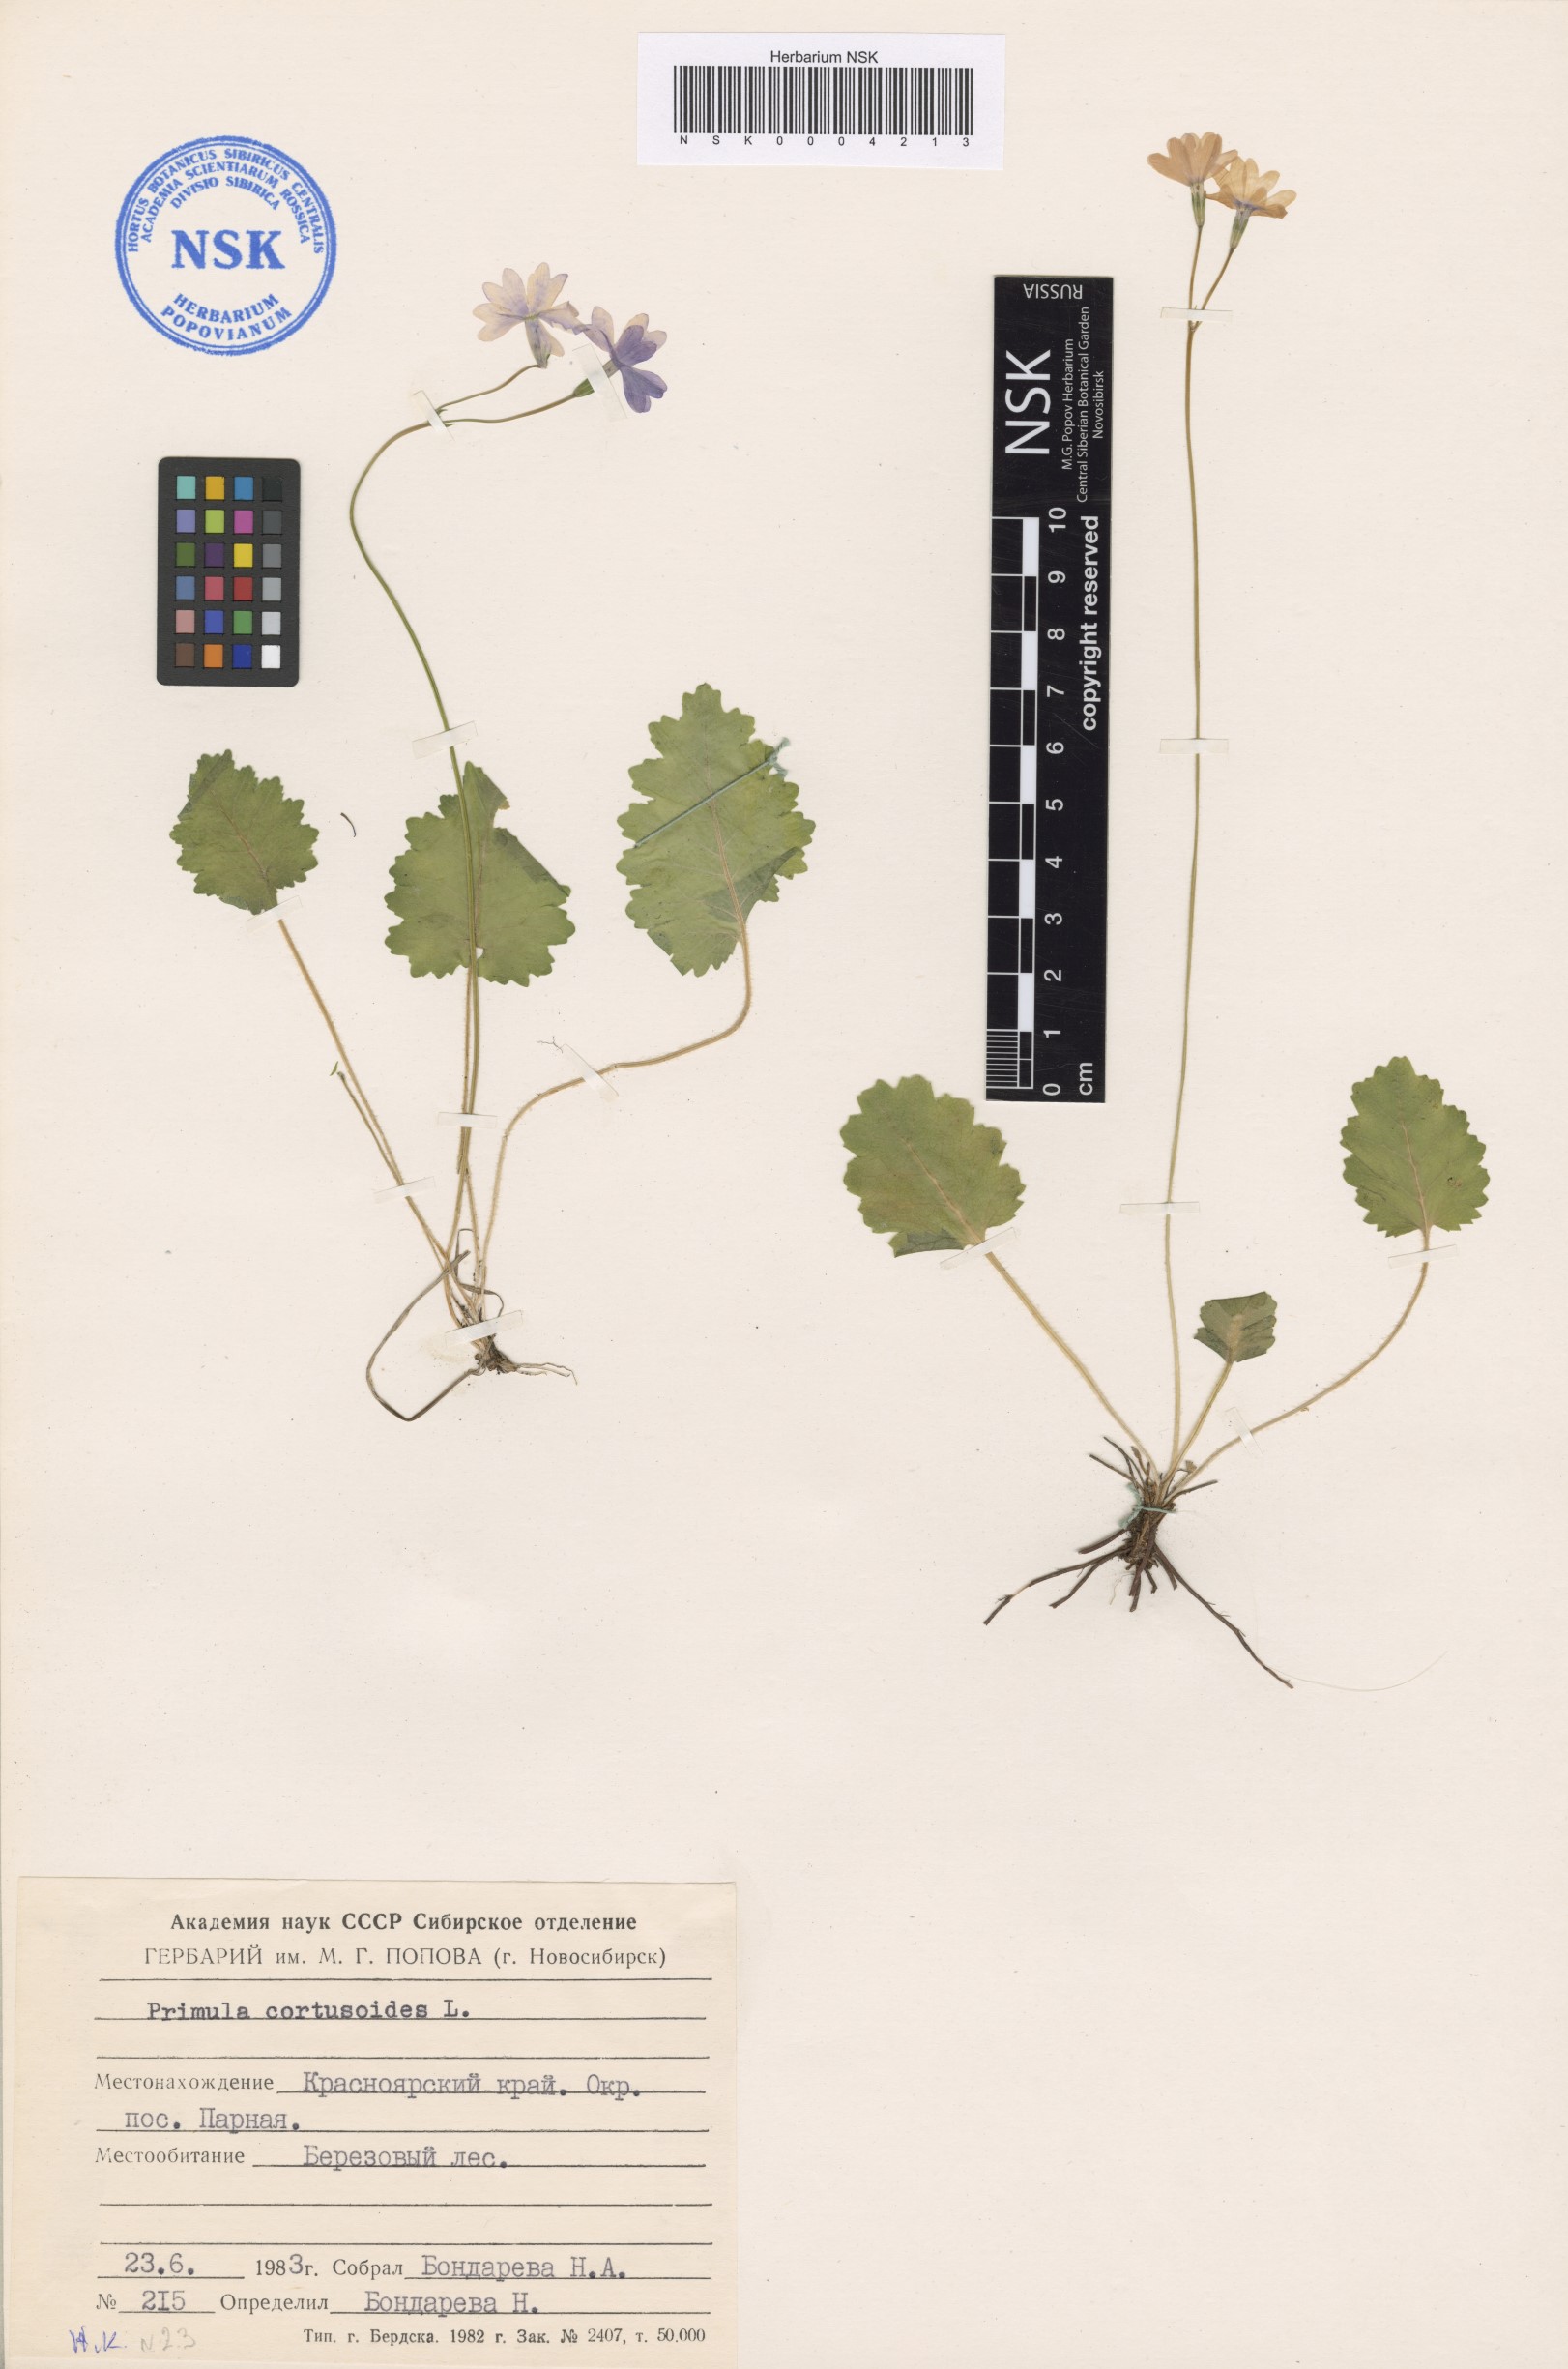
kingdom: Plantae
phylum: Tracheophyta
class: Magnoliopsida
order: Ericales
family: Primulaceae
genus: Primula
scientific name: Primula cortusoides
